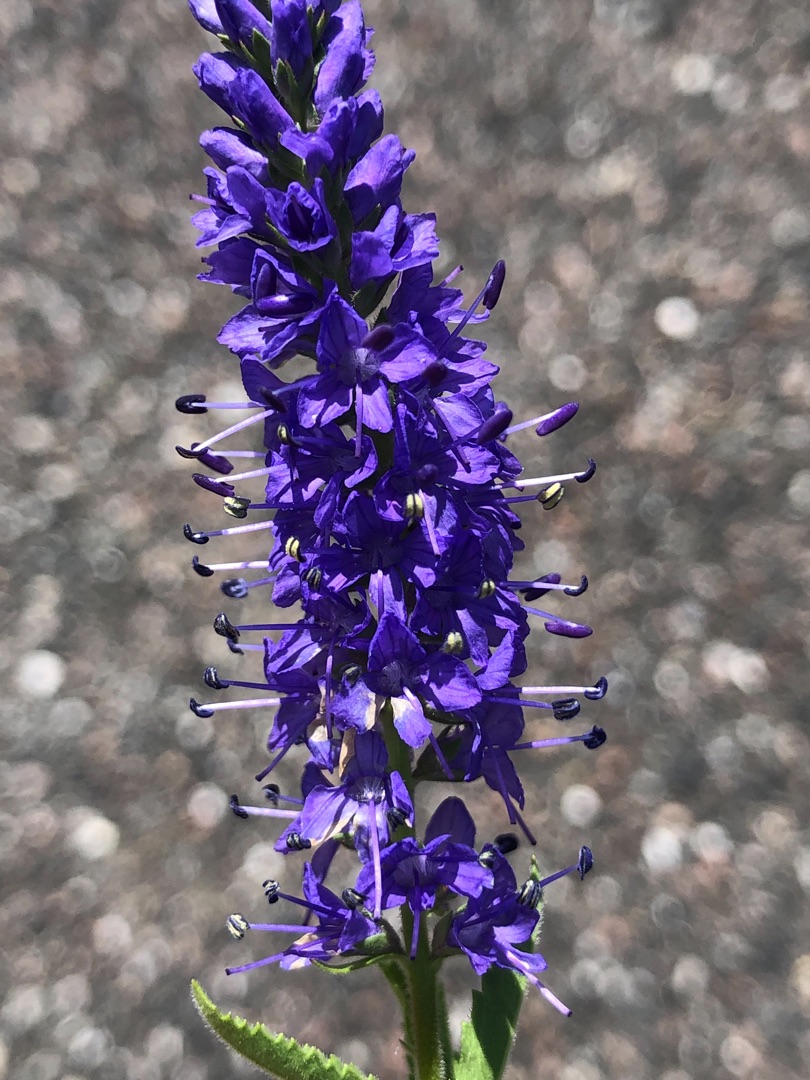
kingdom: Plantae
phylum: Tracheophyta
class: Magnoliopsida
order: Lamiales
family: Plantaginaceae
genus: Veronica
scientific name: Veronica spicata
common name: Aks-ærenpris
